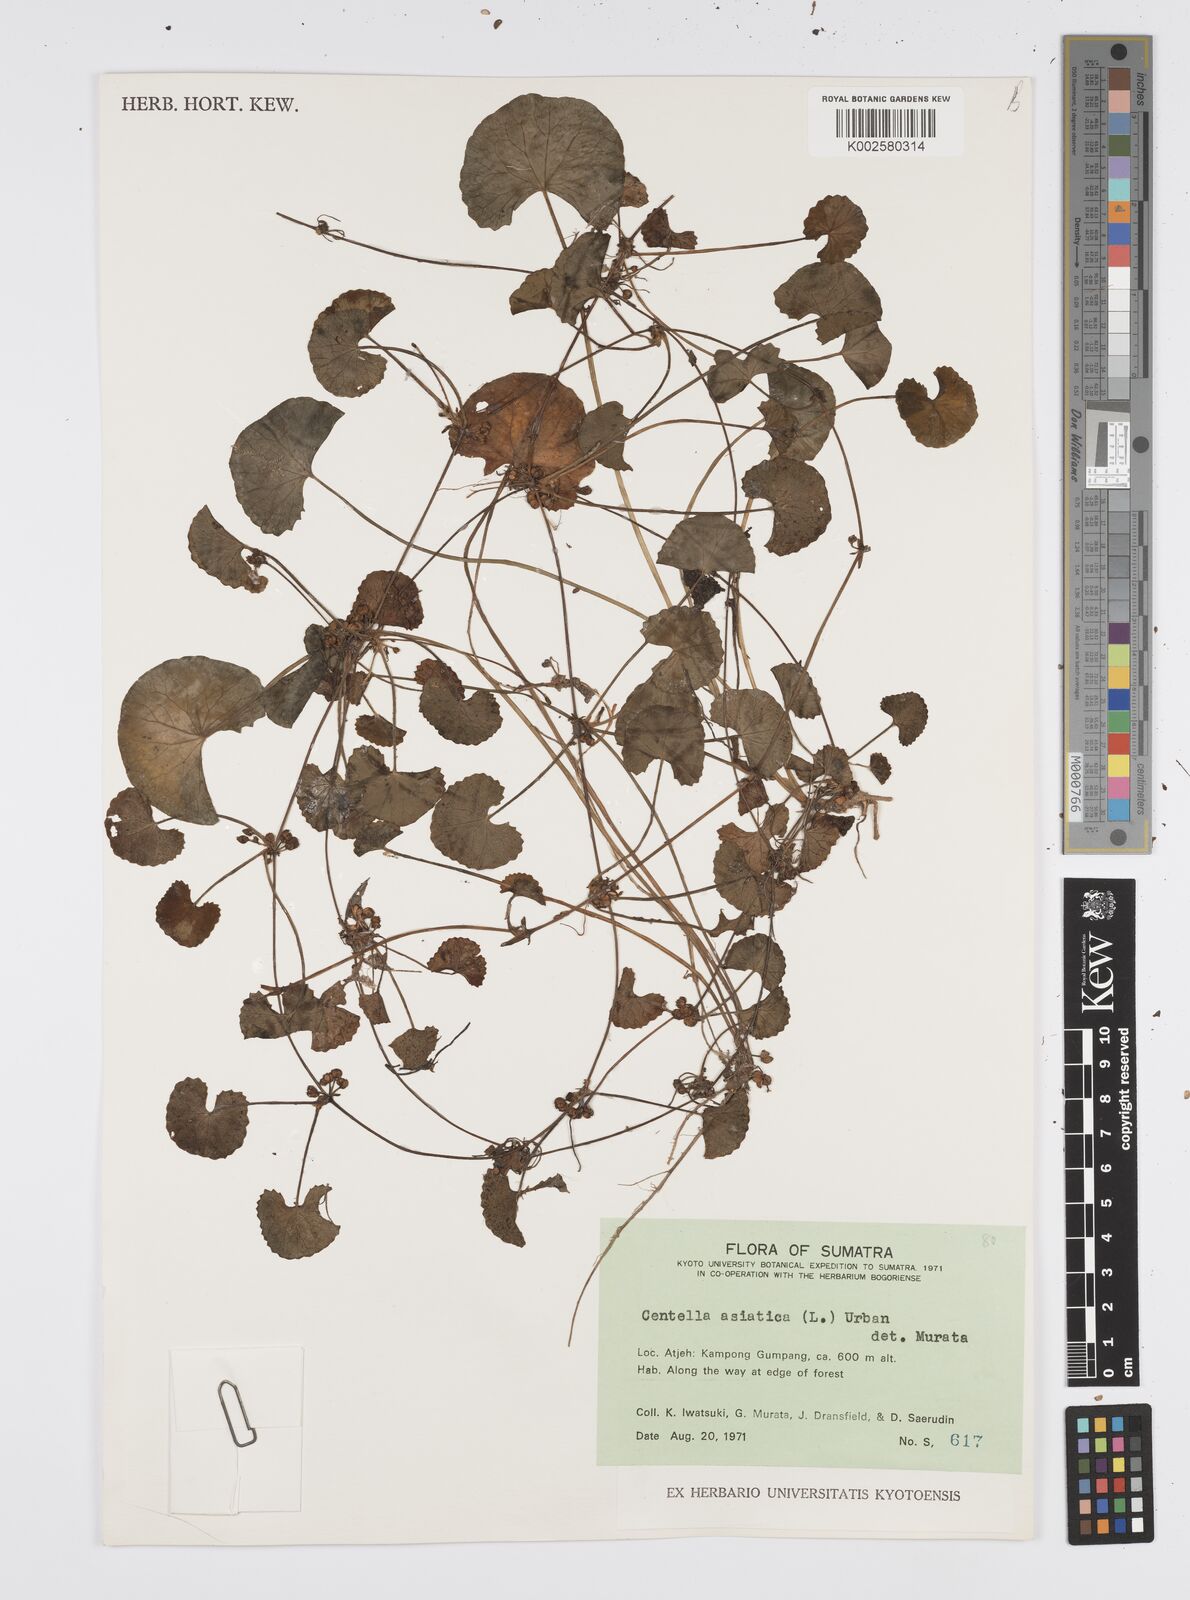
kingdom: Plantae
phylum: Tracheophyta
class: Magnoliopsida
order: Apiales
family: Apiaceae
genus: Centella
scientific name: Centella asiatica
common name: Spadeleaf
